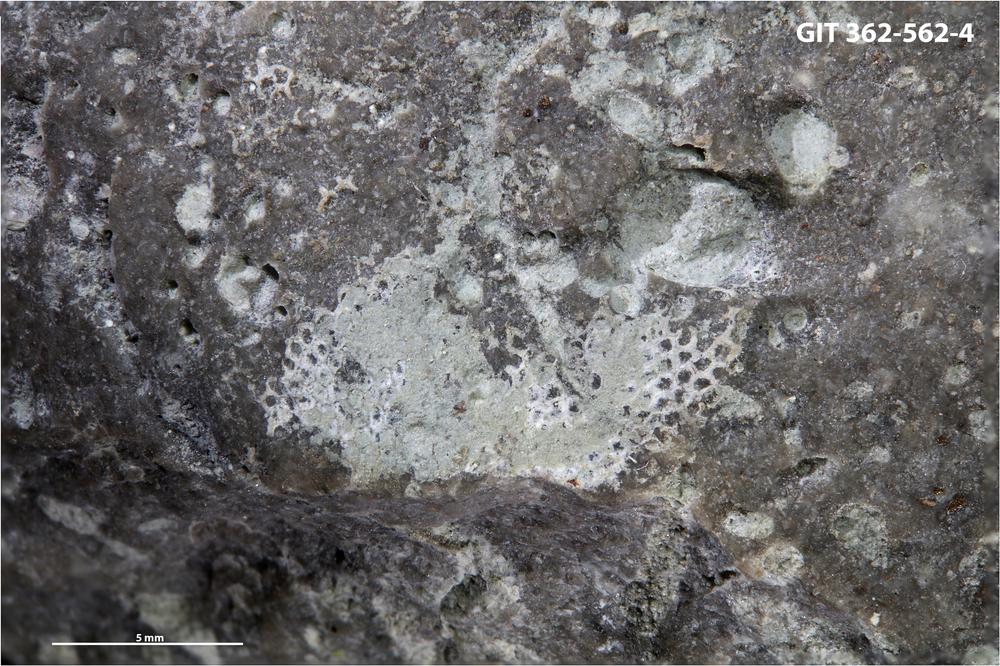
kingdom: Animalia
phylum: Bryozoa
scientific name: Bryozoa
